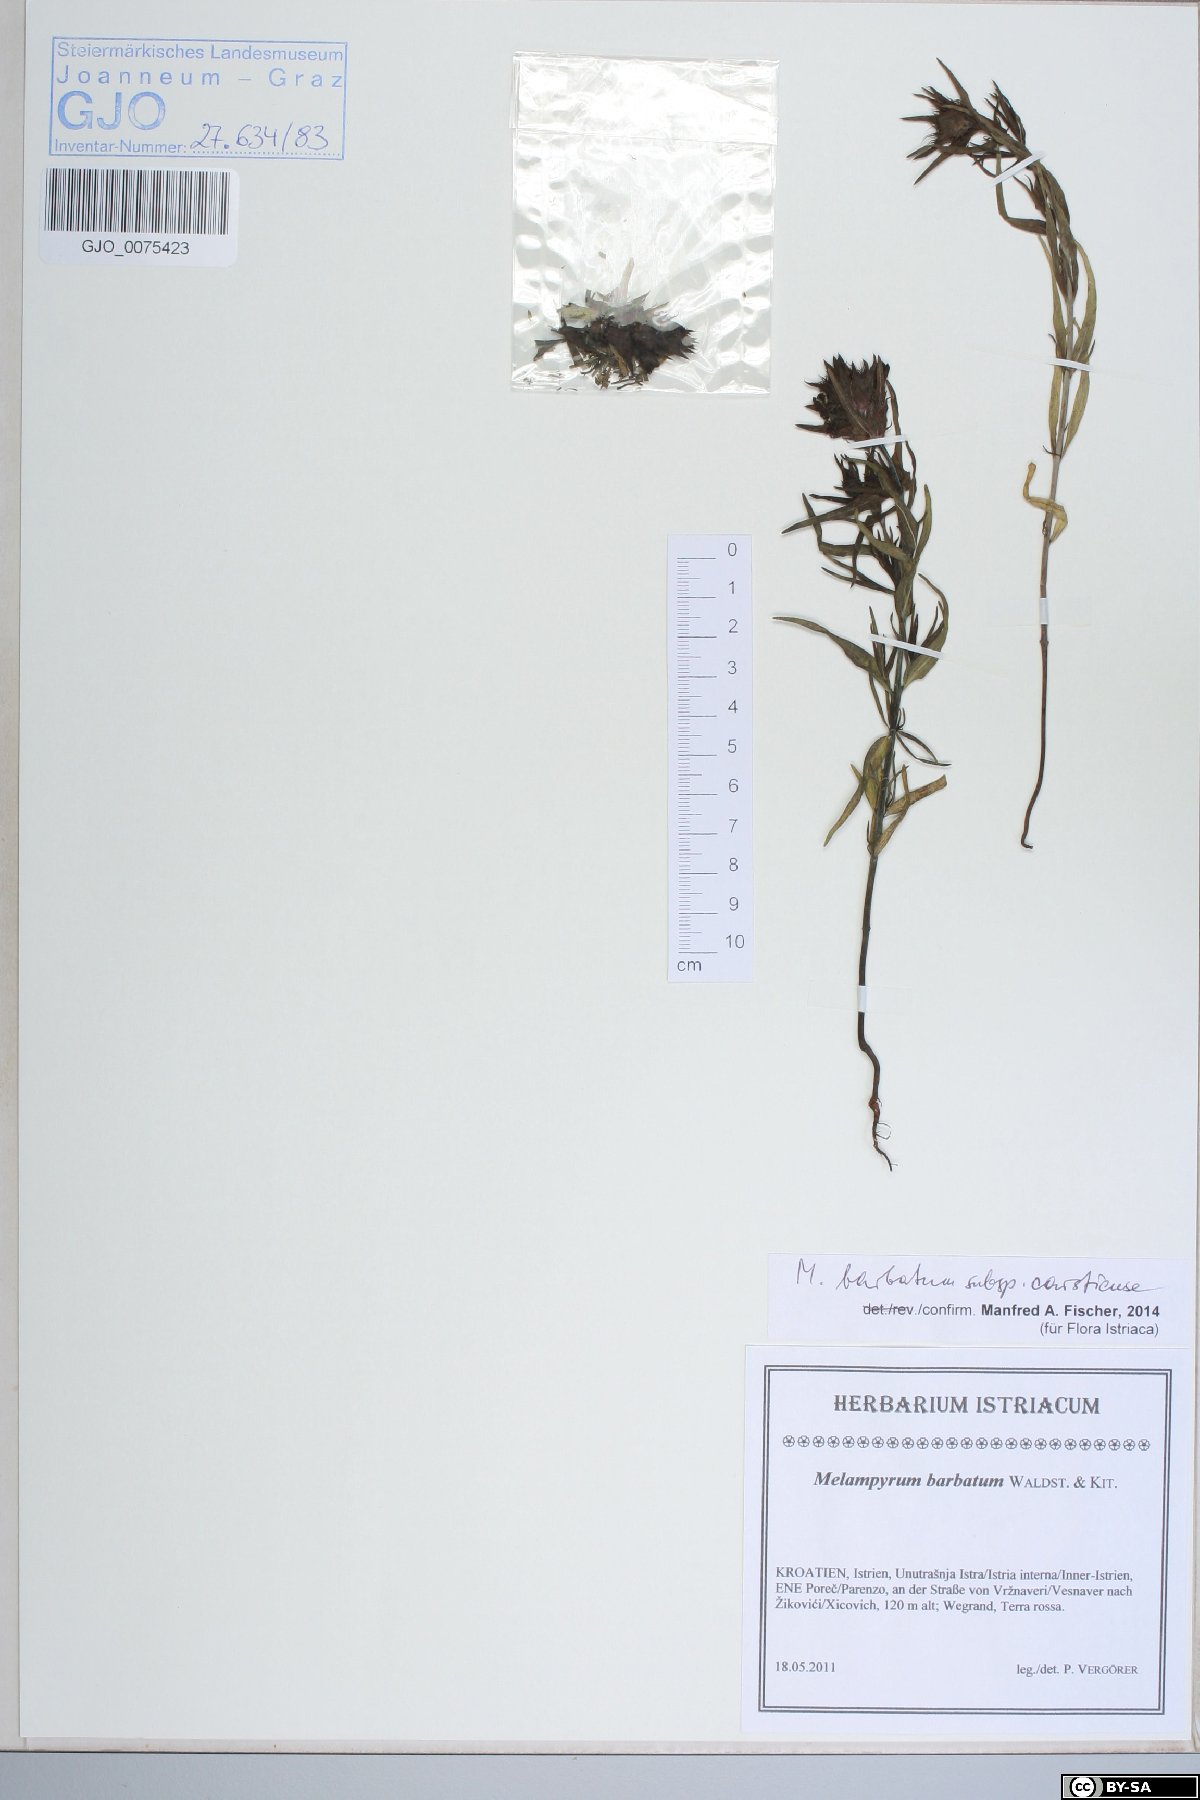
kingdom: Plantae
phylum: Tracheophyta
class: Magnoliopsida
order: Lamiales
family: Orobanchaceae
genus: Melampyrum
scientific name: Melampyrum barbatum
